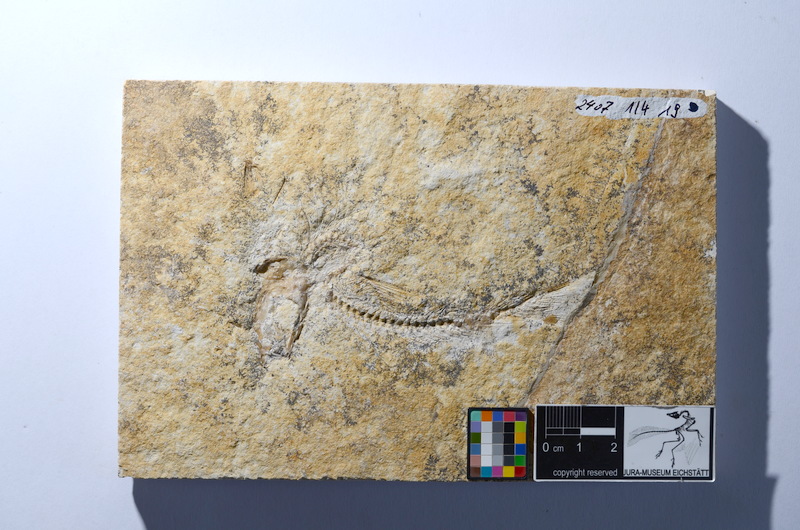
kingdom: Animalia
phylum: Chordata
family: Ascalaboidae
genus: Tharsis
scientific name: Tharsis dubius
